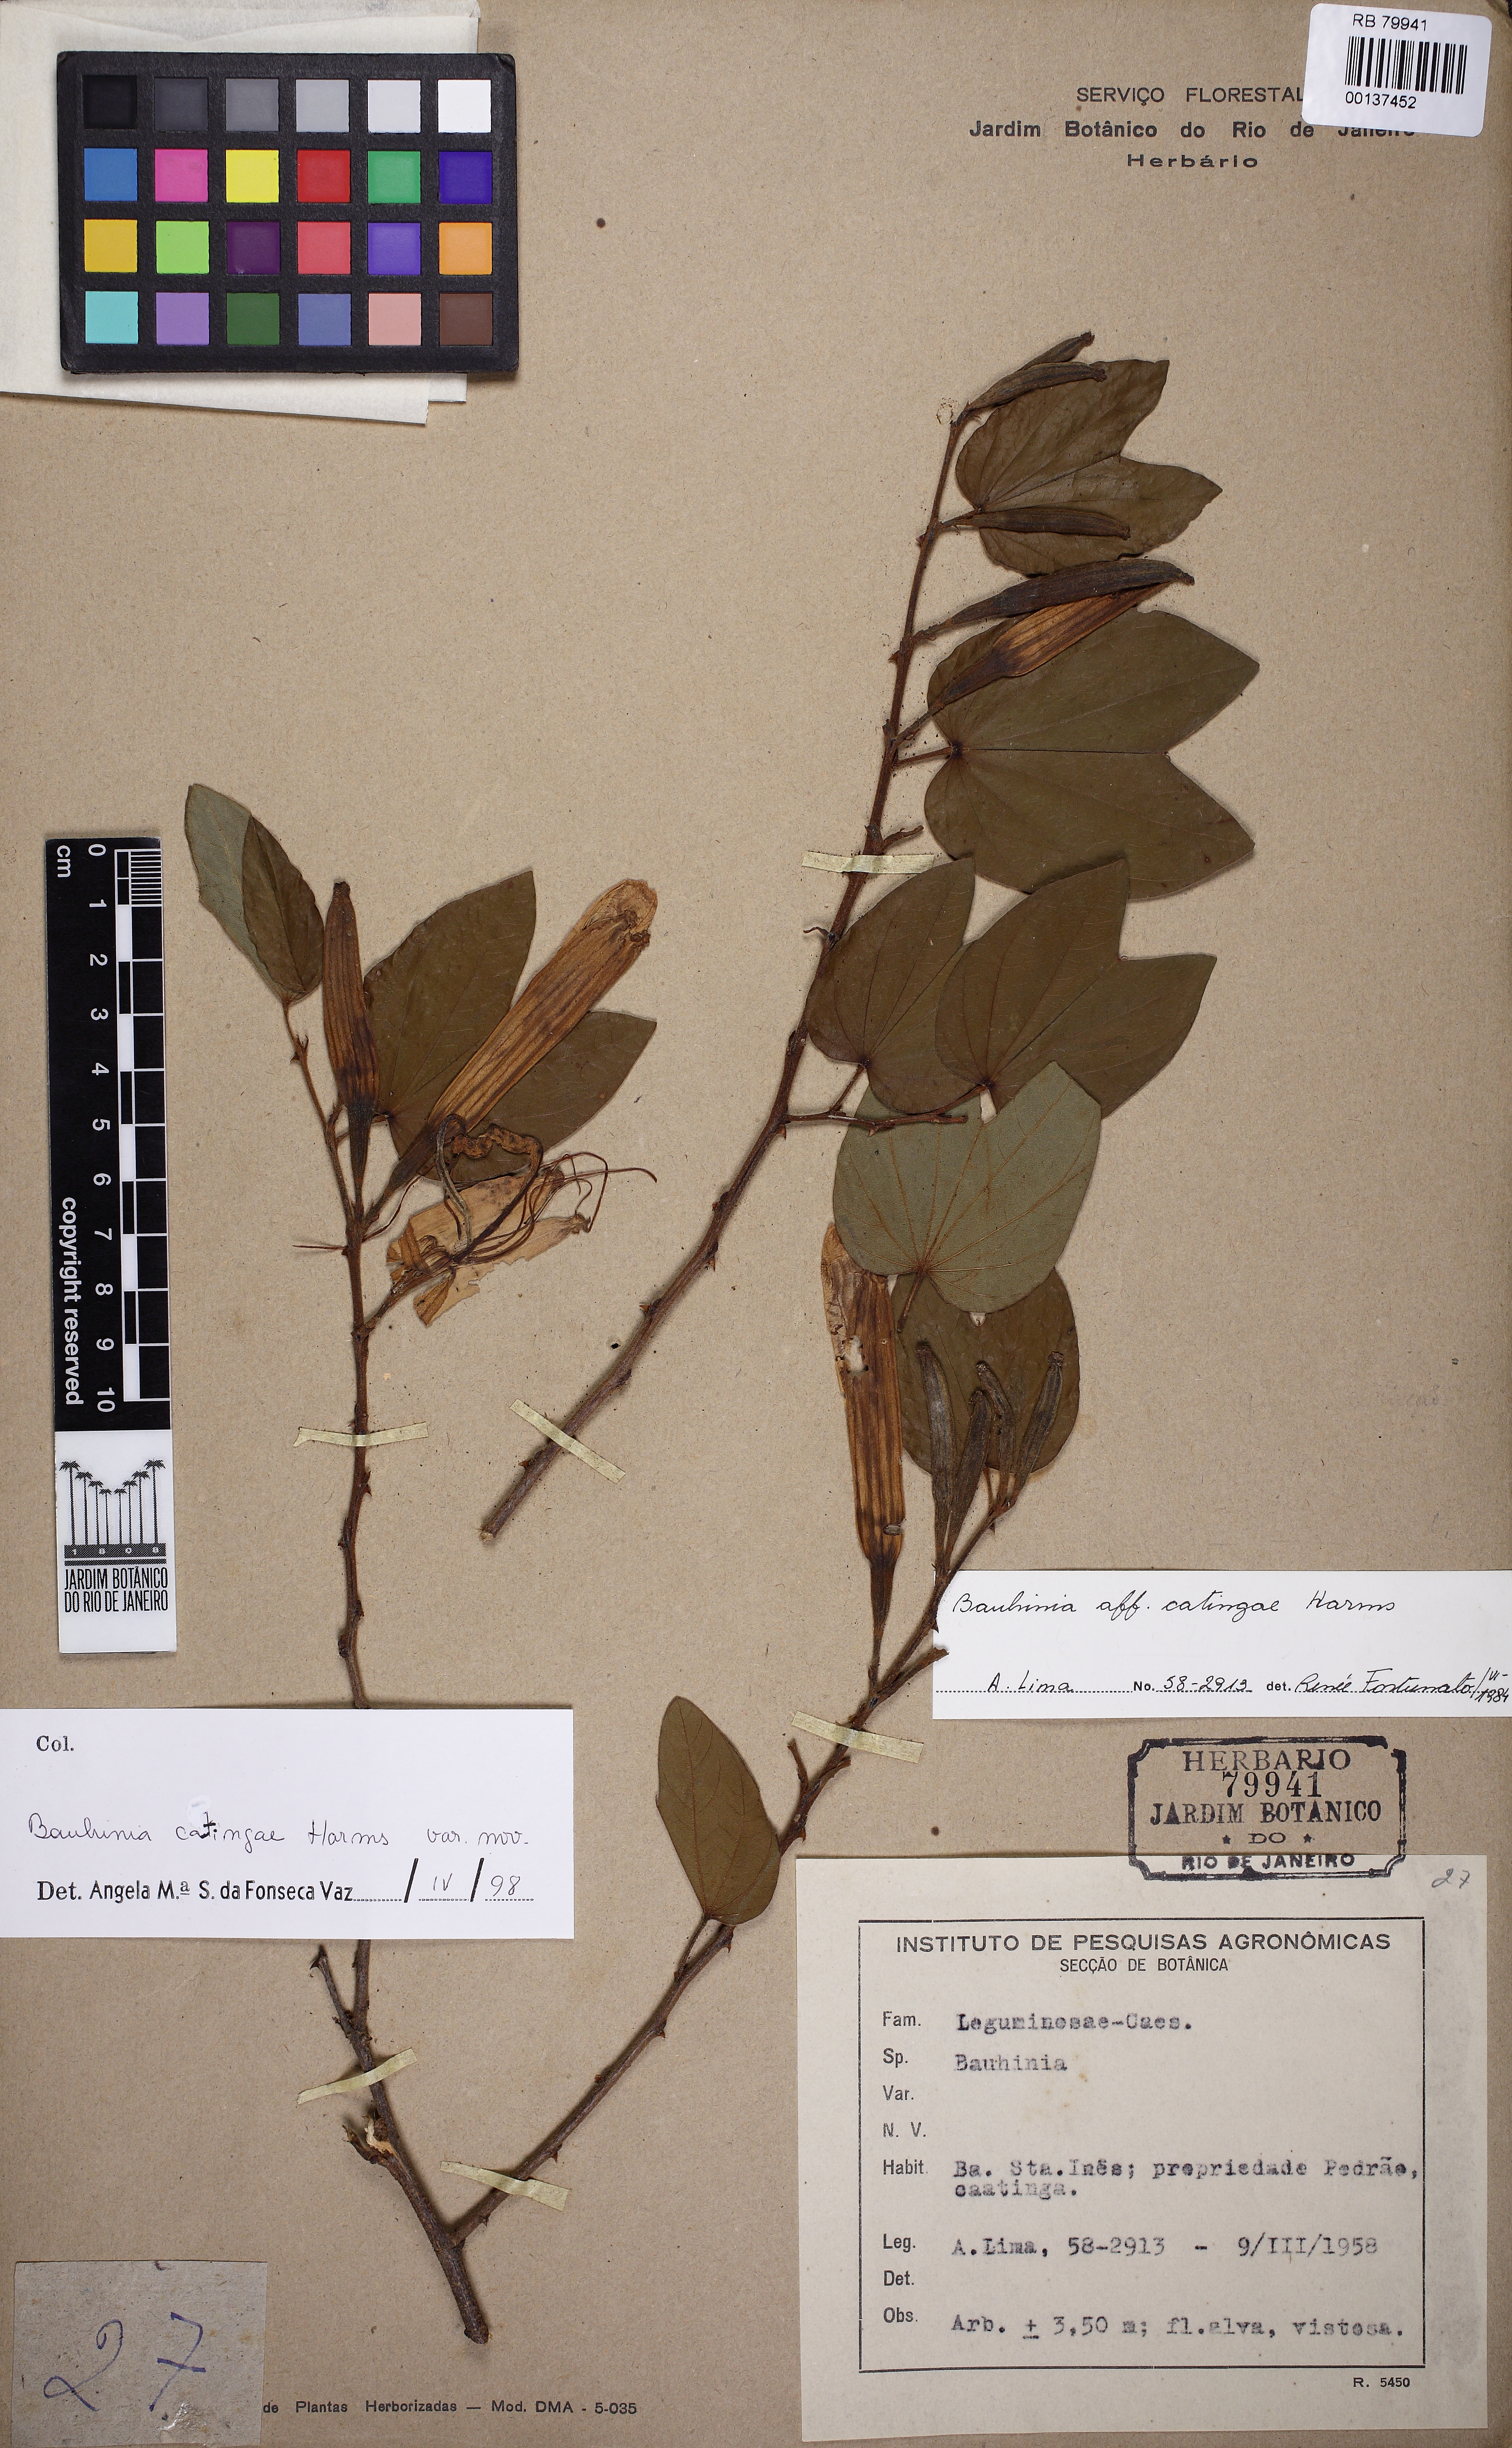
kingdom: Plantae
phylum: Tracheophyta
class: Magnoliopsida
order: Fabales
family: Fabaceae
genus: Bauhinia
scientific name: Bauhinia catingae
